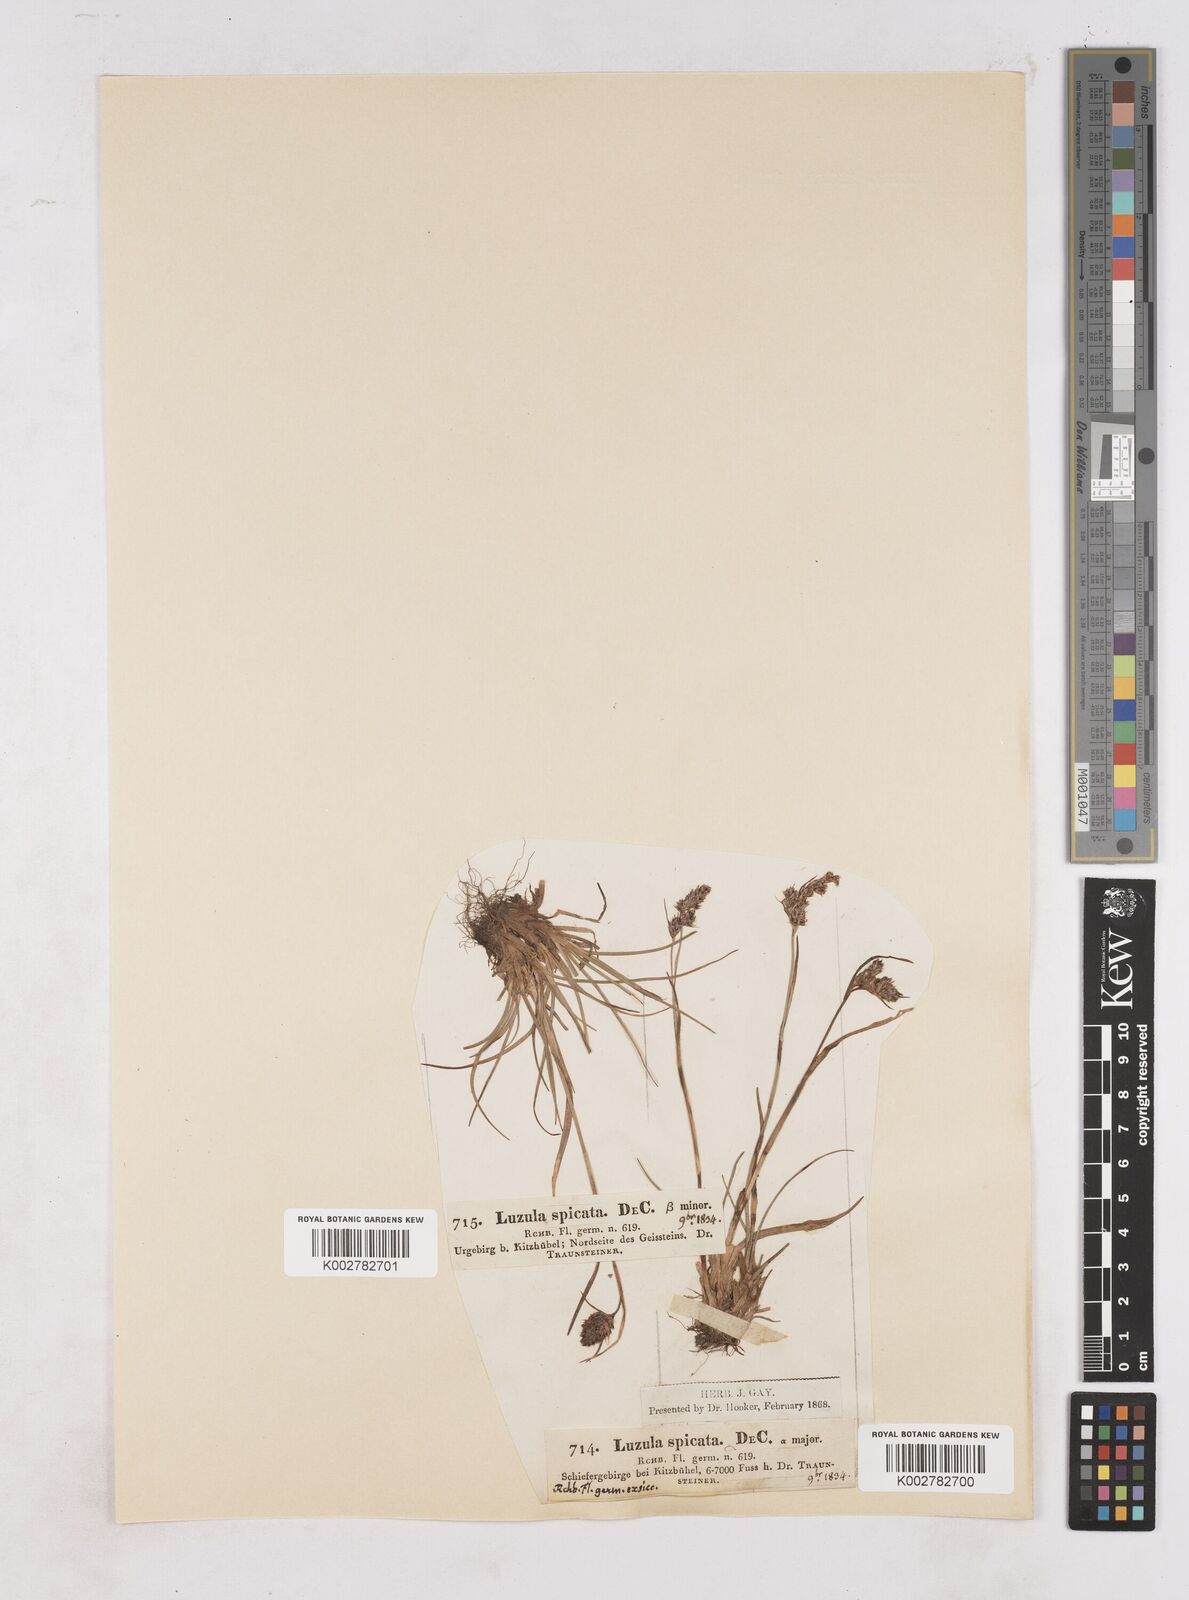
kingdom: Plantae
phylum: Tracheophyta
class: Liliopsida
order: Poales
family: Juncaceae
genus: Luzula
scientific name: Luzula spicata
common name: Spiked wood-rush
